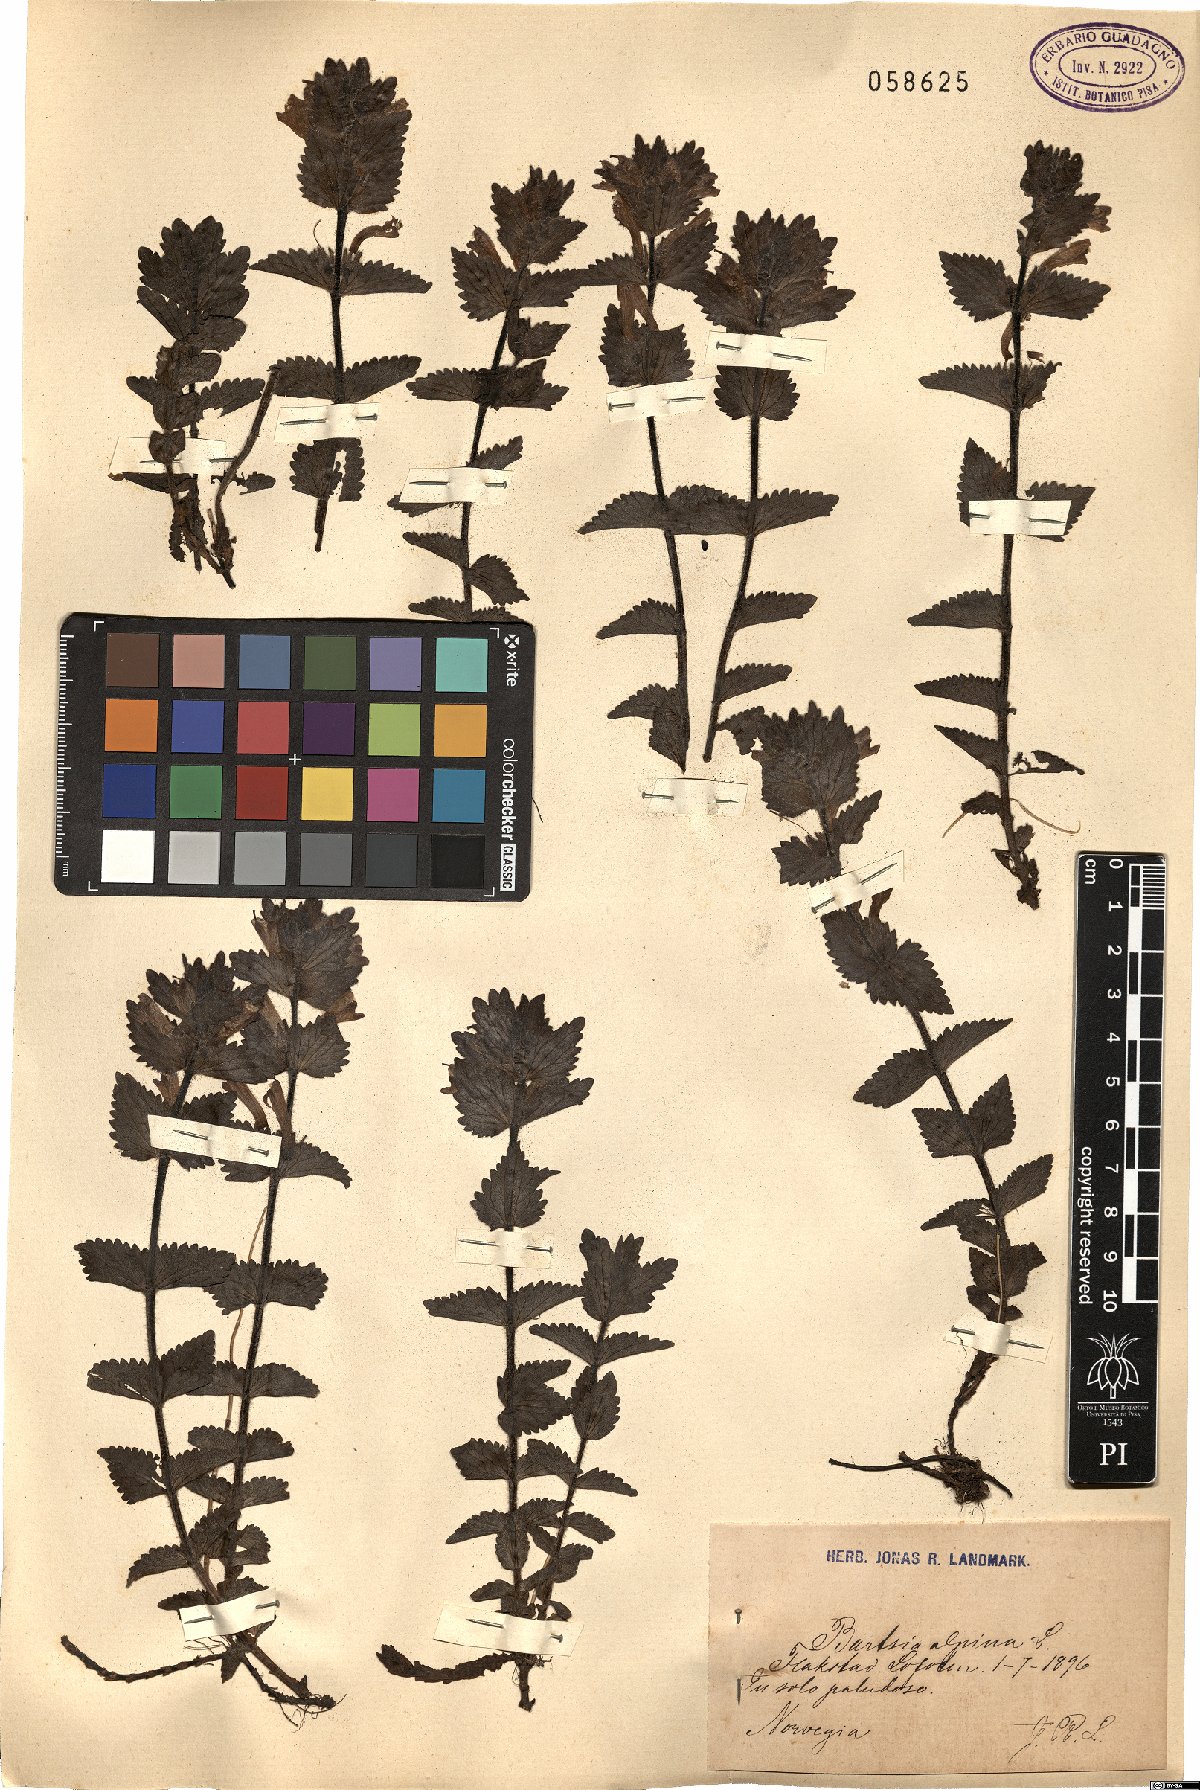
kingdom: Plantae
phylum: Tracheophyta
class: Magnoliopsida
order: Lamiales
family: Orobanchaceae
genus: Bartsia
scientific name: Bartsia alpina
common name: Alpine bartsia
